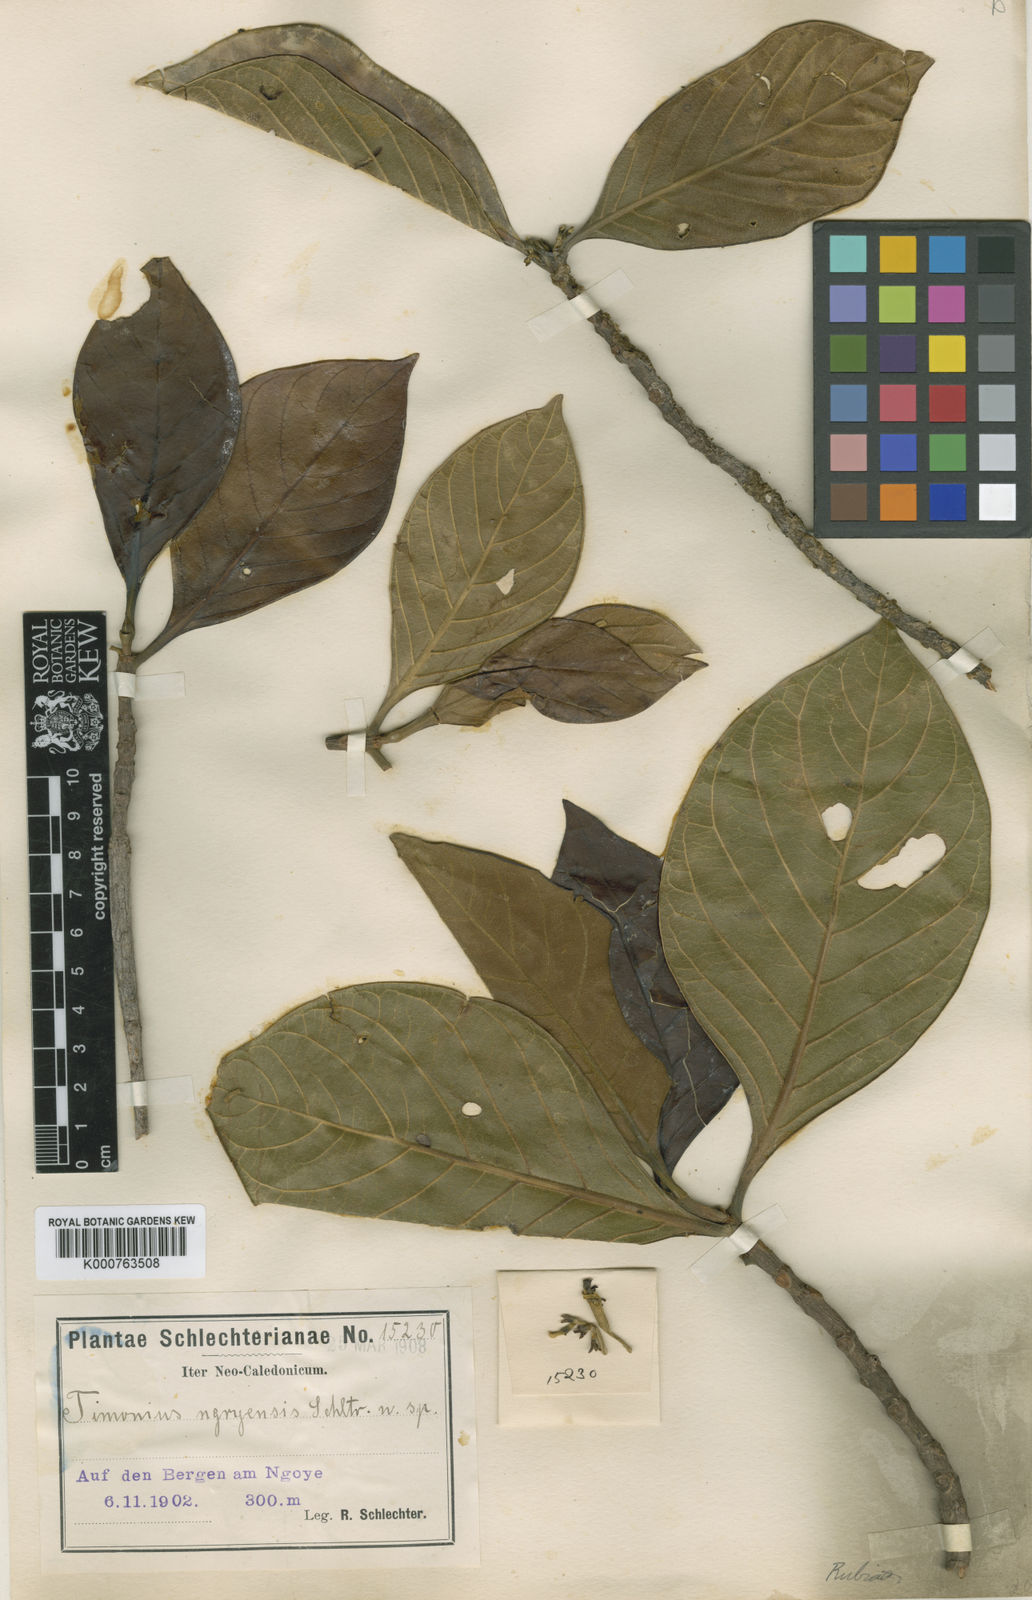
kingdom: Plantae
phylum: Tracheophyta
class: Magnoliopsida
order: Gentianales
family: Rubiaceae
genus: Achilleanthus
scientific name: Achilleanthus ngoyensis
